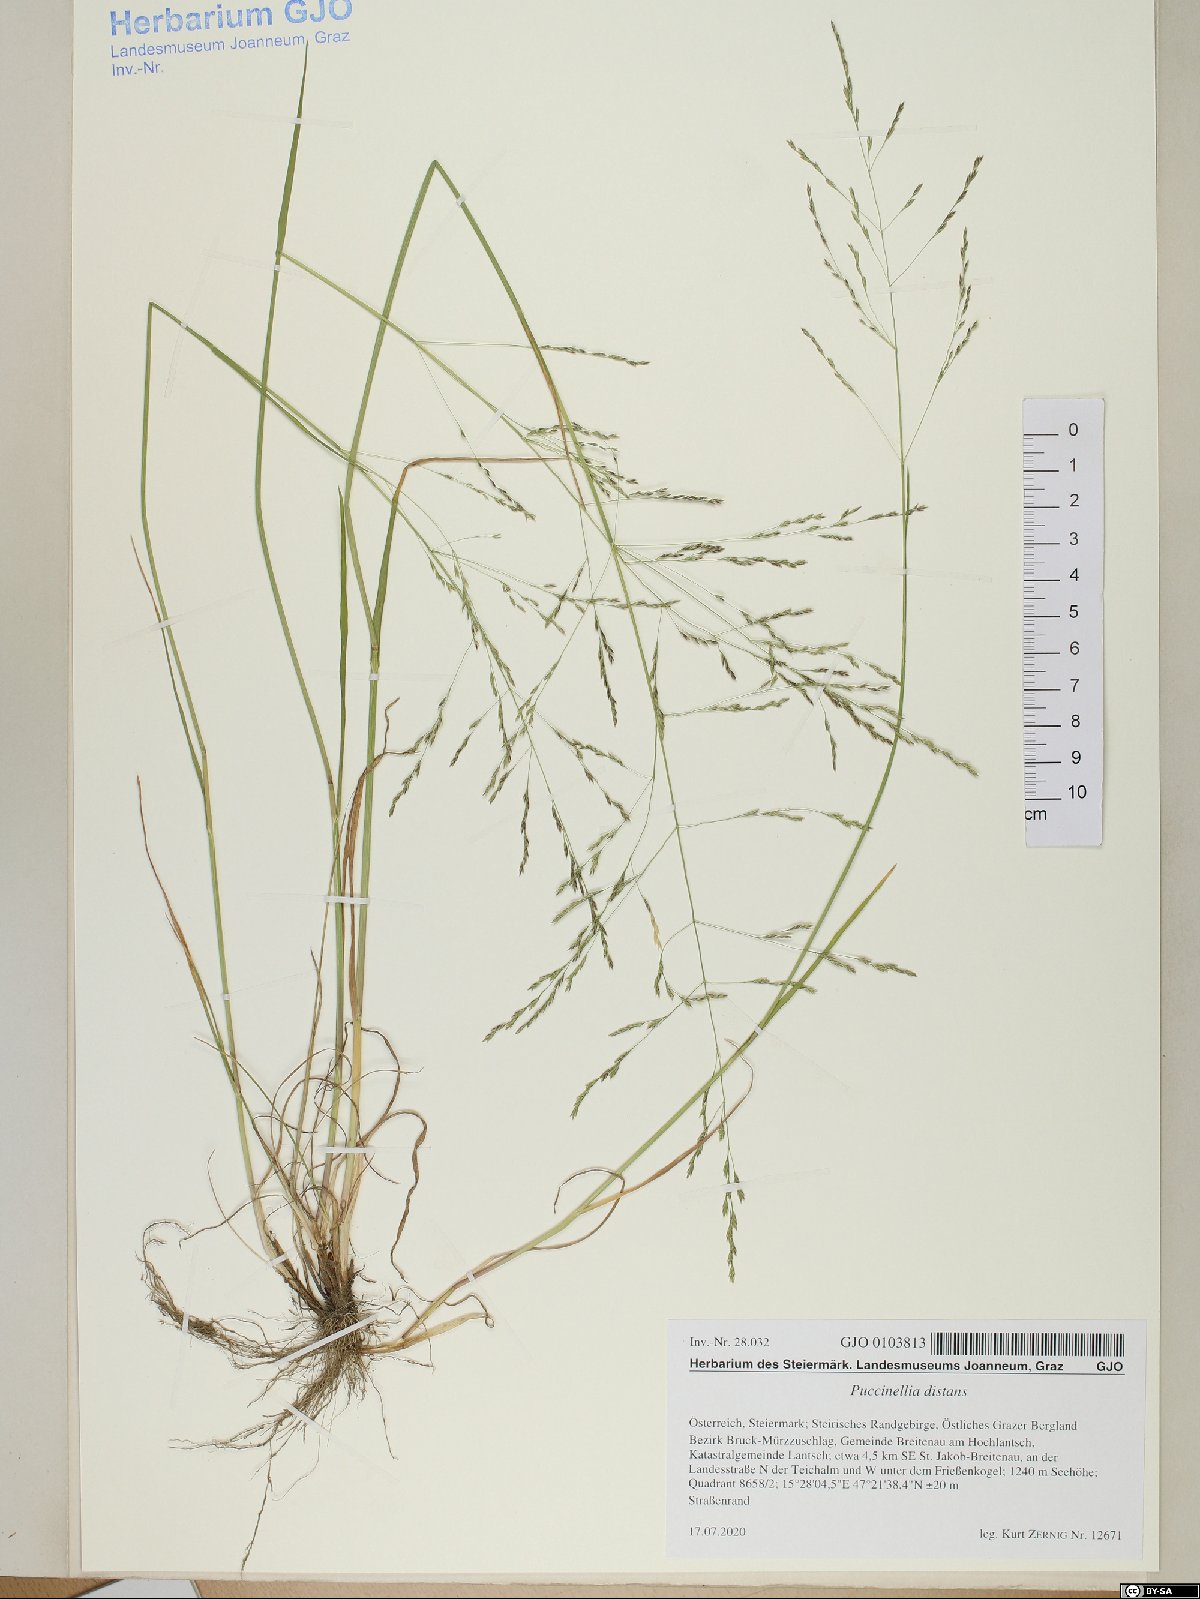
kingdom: Plantae
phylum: Tracheophyta
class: Liliopsida
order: Poales
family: Poaceae
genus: Puccinellia
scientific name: Puccinellia distans
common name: Weeping alkaligrass
